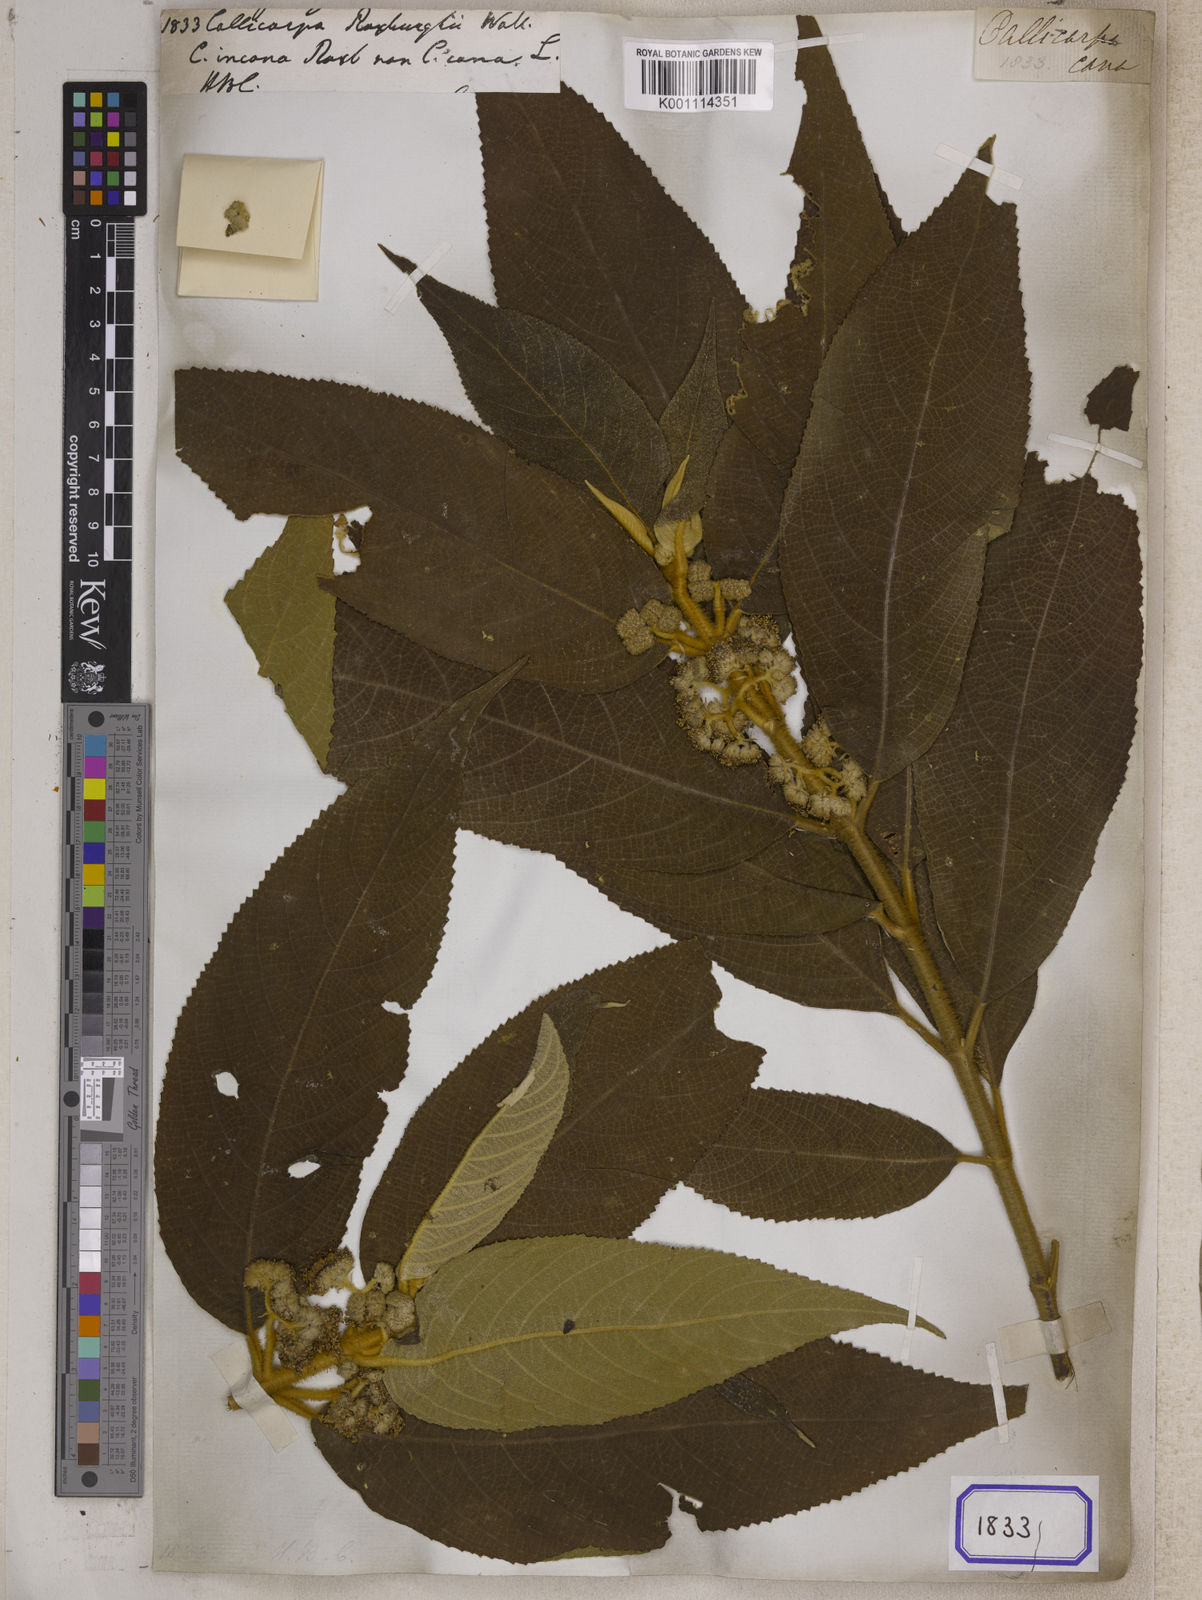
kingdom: Plantae
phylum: Tracheophyta
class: Magnoliopsida
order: Lamiales
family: Lamiaceae
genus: Callicarpa
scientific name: Callicarpa macrophylla
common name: Urn-fruit beauty-berry
